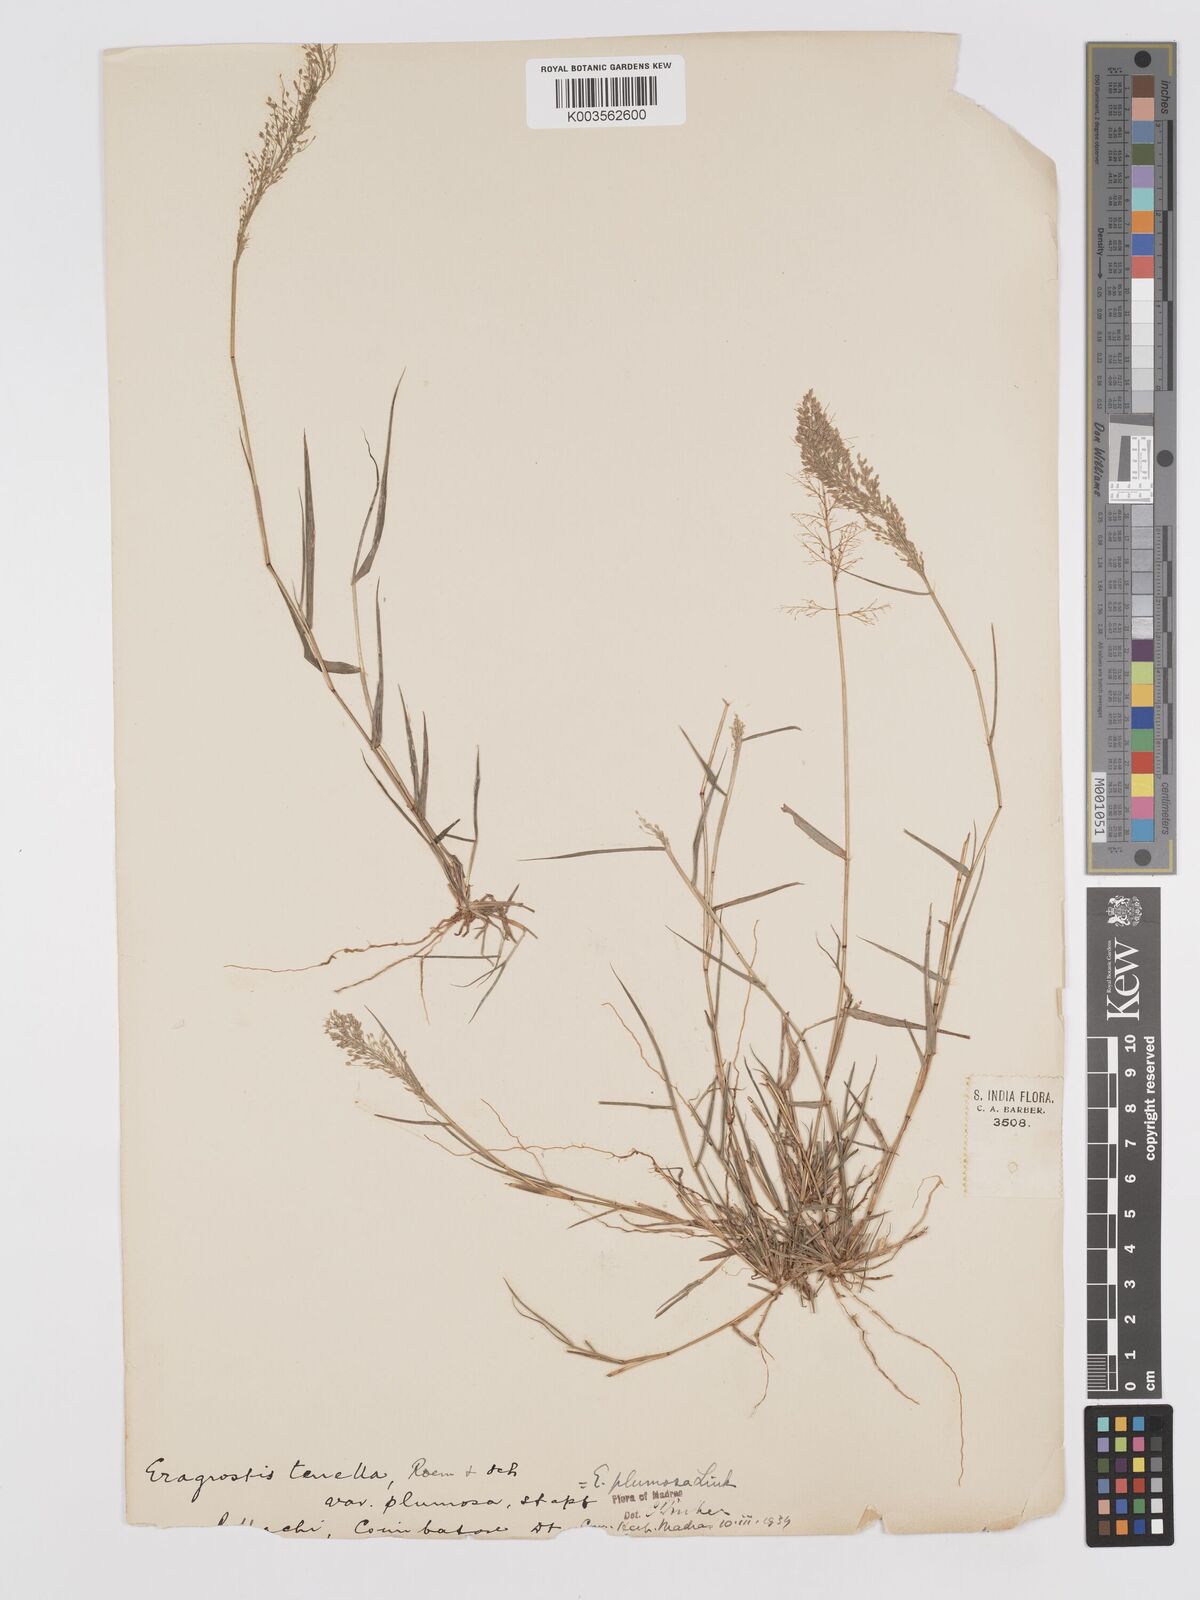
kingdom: Plantae
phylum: Tracheophyta
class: Liliopsida
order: Poales
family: Poaceae
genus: Eragrostis
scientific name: Eragrostis tenella
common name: Japanese lovegrass
